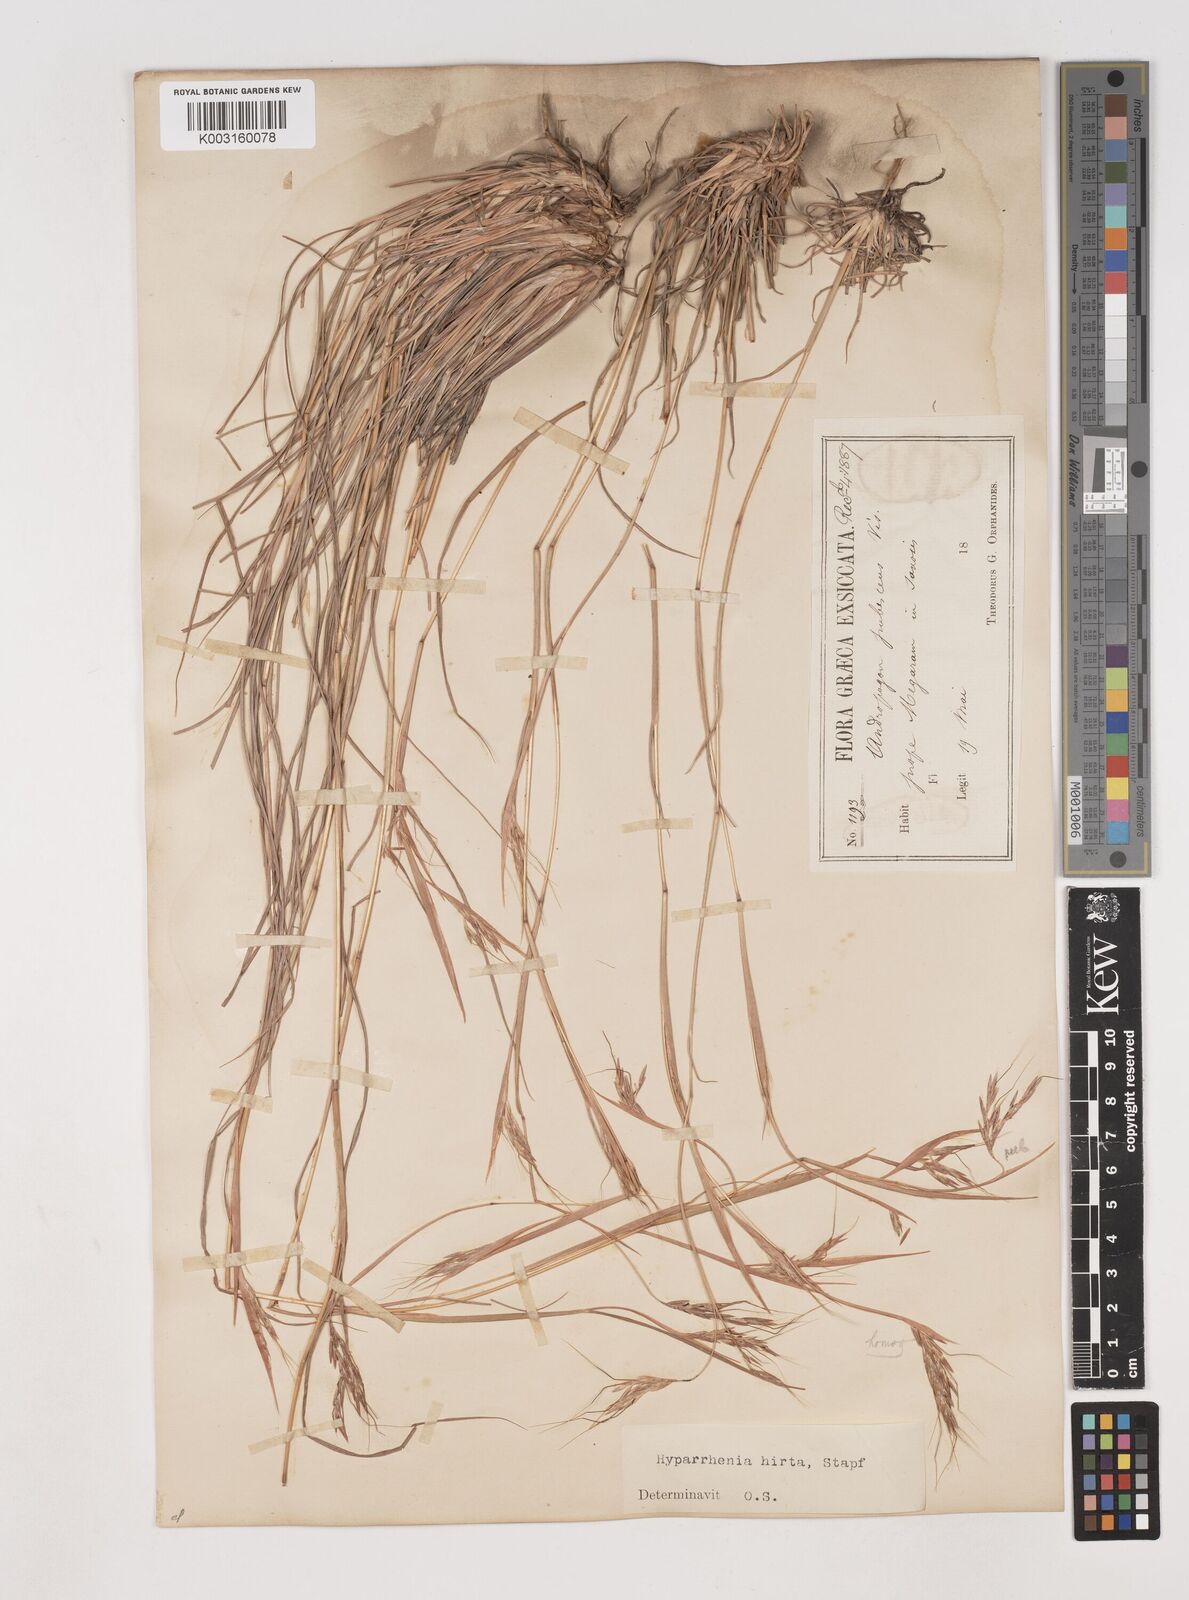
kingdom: Plantae
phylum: Tracheophyta
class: Liliopsida
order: Poales
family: Poaceae
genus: Hyparrhenia
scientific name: Hyparrhenia hirta
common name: Thatching grass
